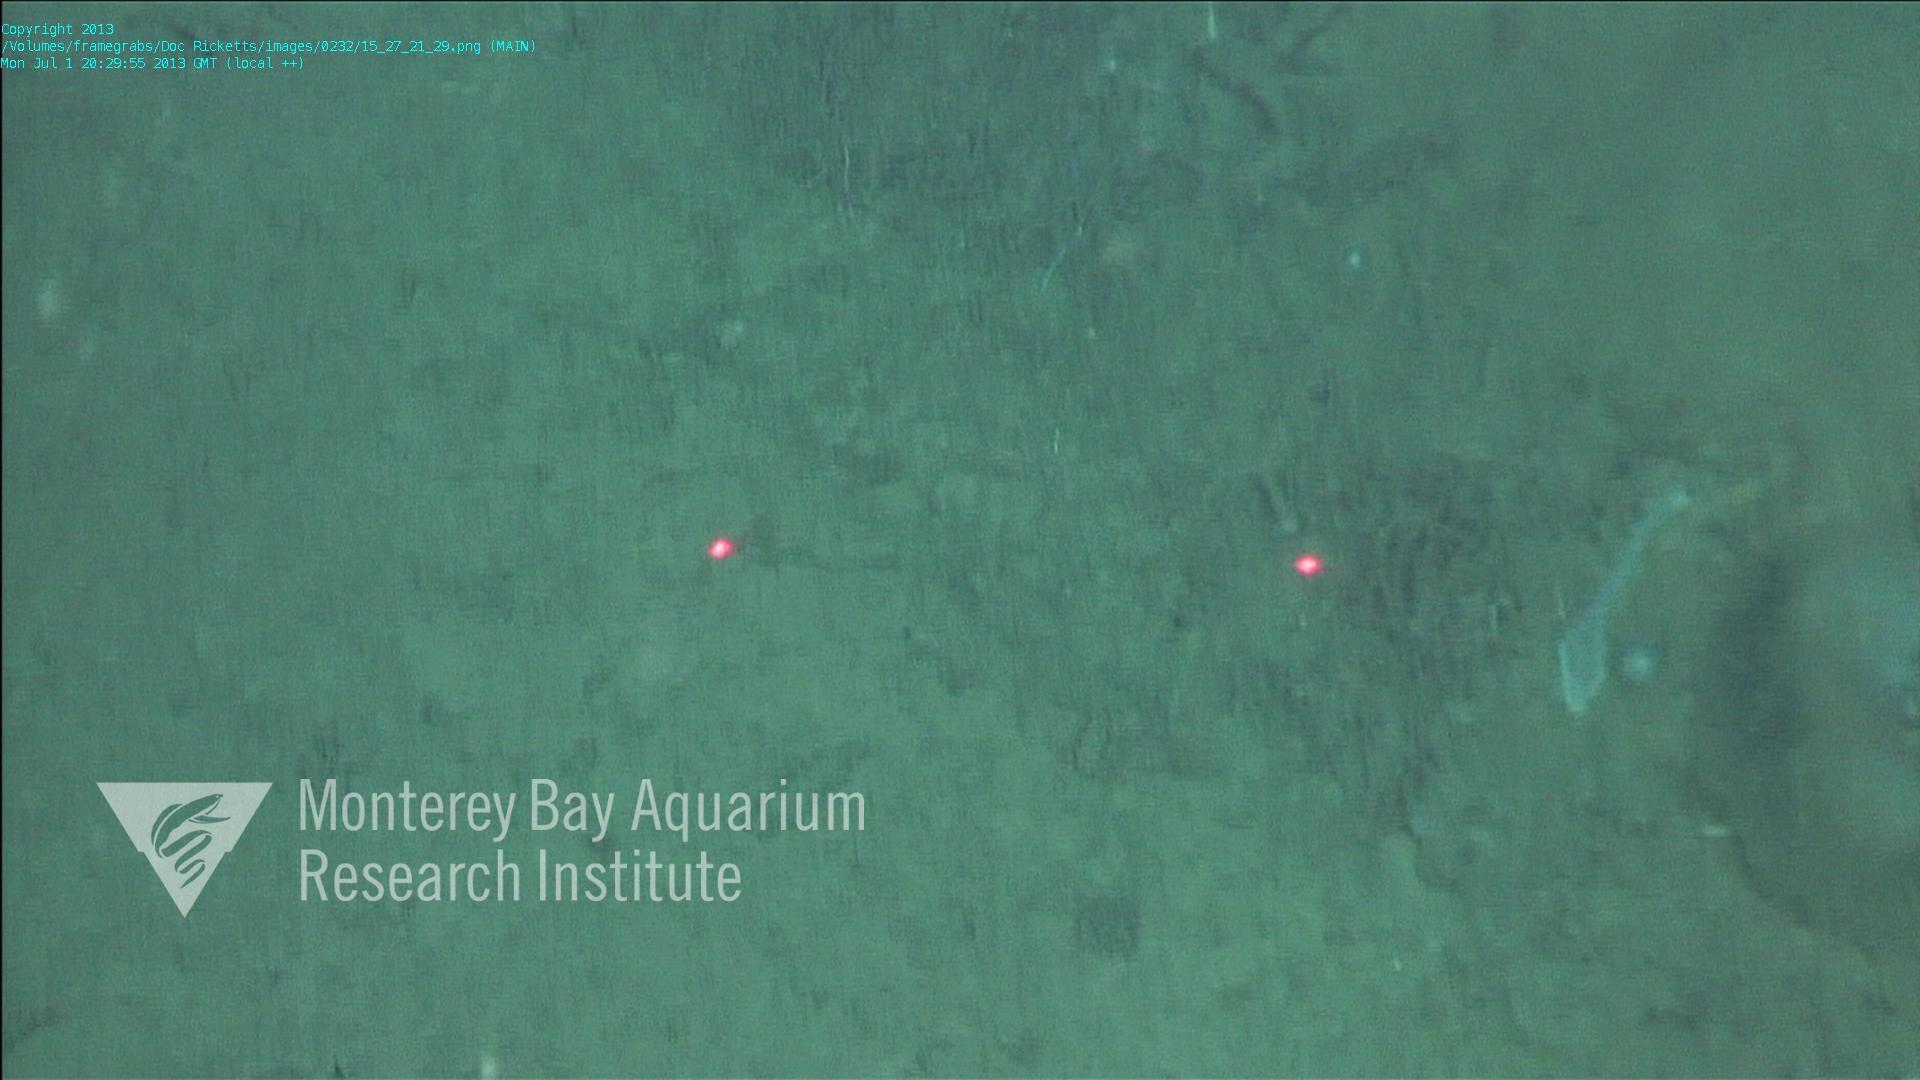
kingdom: Animalia
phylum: Porifera
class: Demospongiae
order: Poecilosclerida
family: Cladorhizidae
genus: Cladorhiza
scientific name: Cladorhiza
